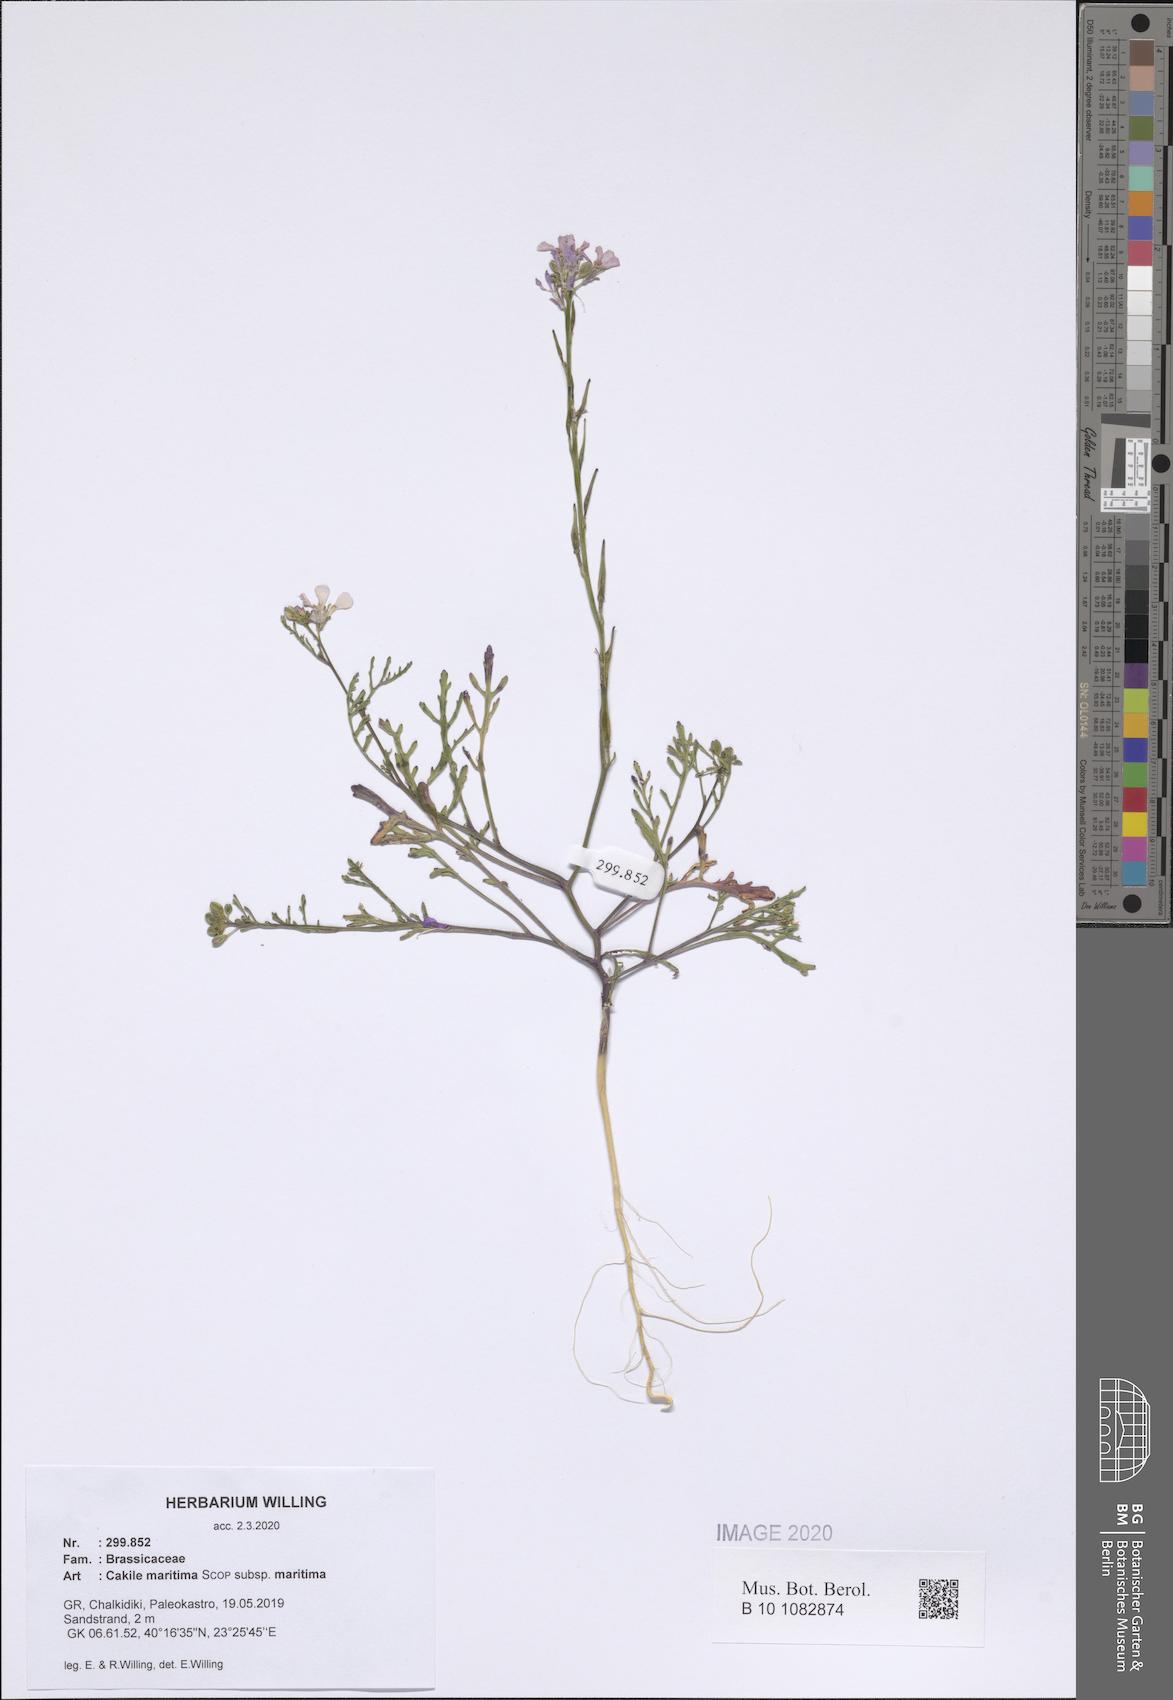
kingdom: Plantae
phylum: Tracheophyta
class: Magnoliopsida
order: Brassicales
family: Brassicaceae
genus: Cakile
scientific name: Cakile maritima
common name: Sea rocket
